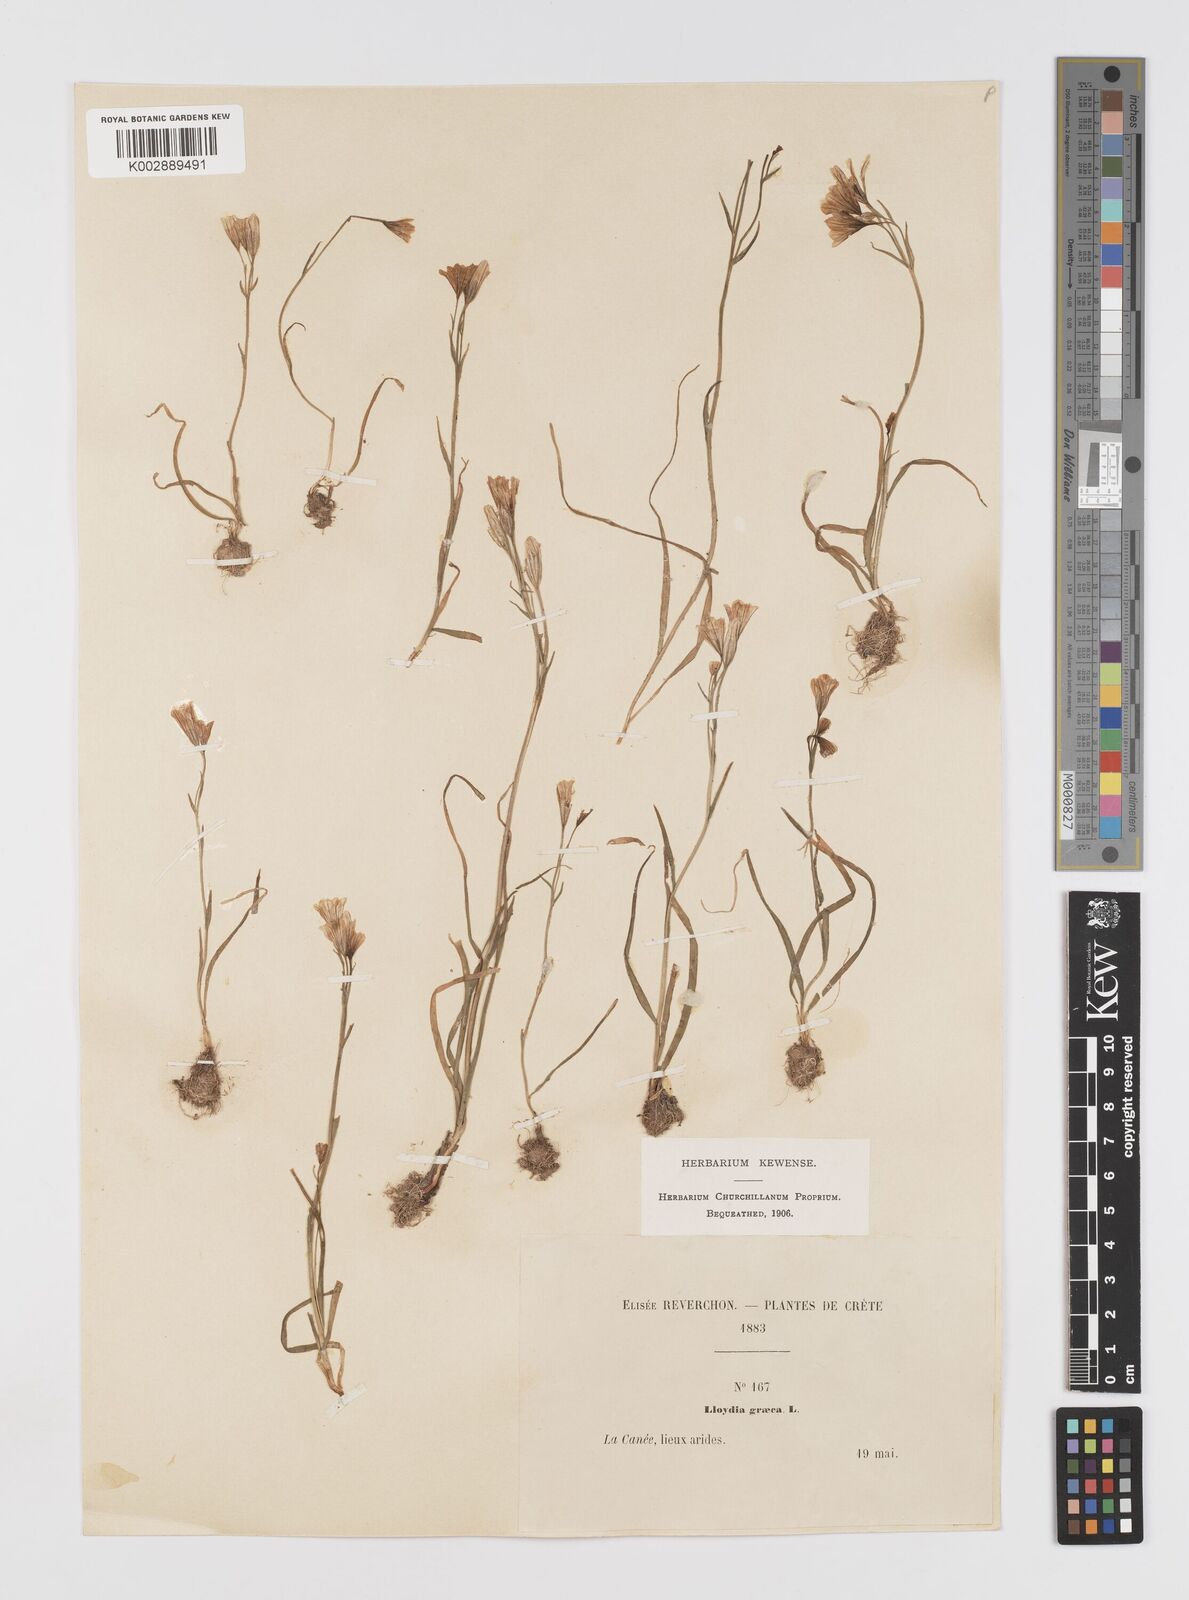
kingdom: Plantae
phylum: Tracheophyta
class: Liliopsida
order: Liliales
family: Liliaceae
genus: Gagea
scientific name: Gagea graeca
